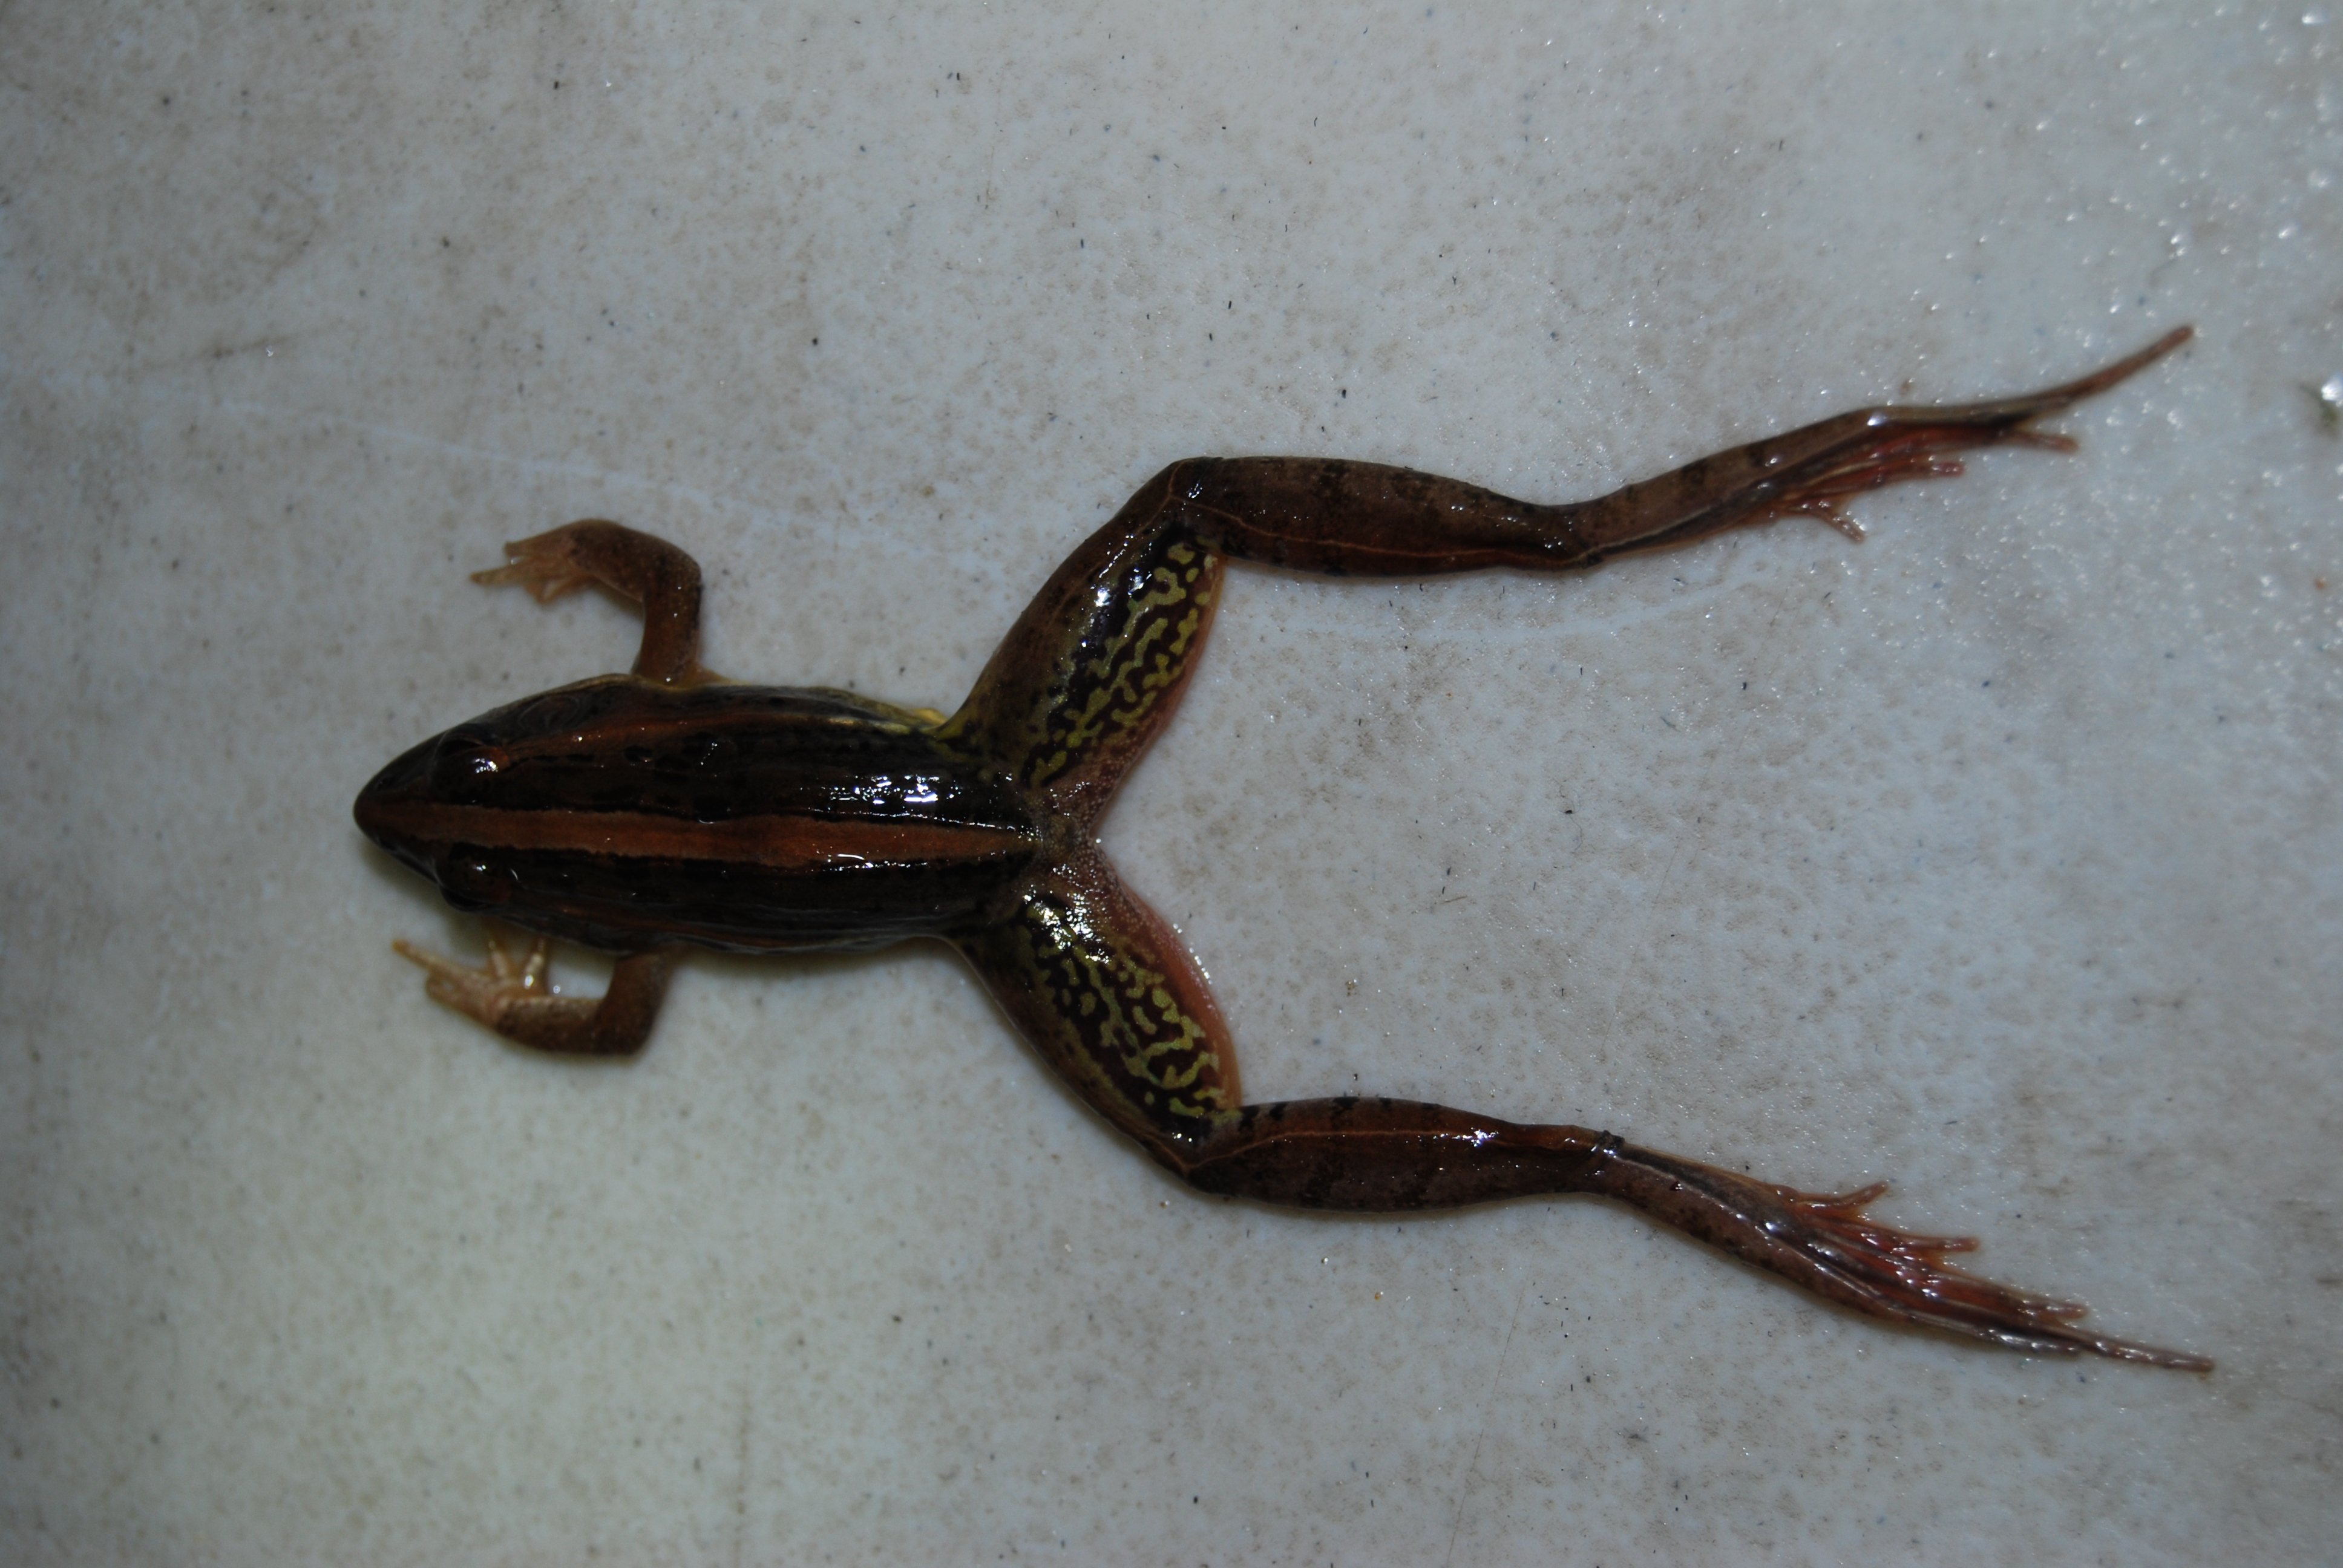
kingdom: Animalia
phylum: Chordata
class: Amphibia
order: Anura
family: Ptychadenidae
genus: Ptychadena
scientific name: Ptychadena mascareniensis
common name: Mascarene grass frog
